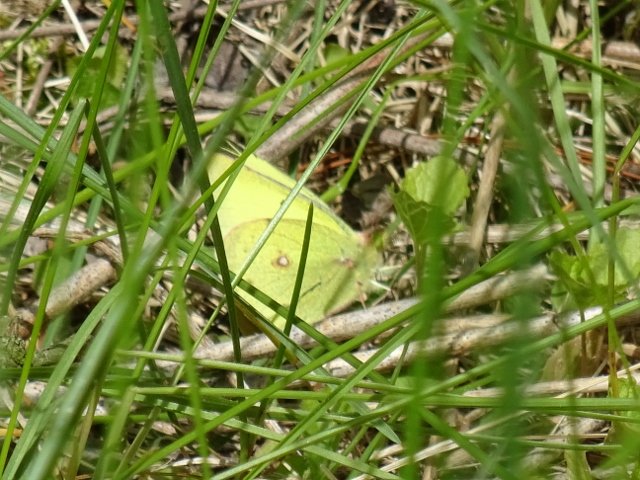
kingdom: Animalia
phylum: Arthropoda
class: Insecta
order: Lepidoptera
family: Pieridae
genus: Colias
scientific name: Colias philodice
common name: Clouded Sulphur
